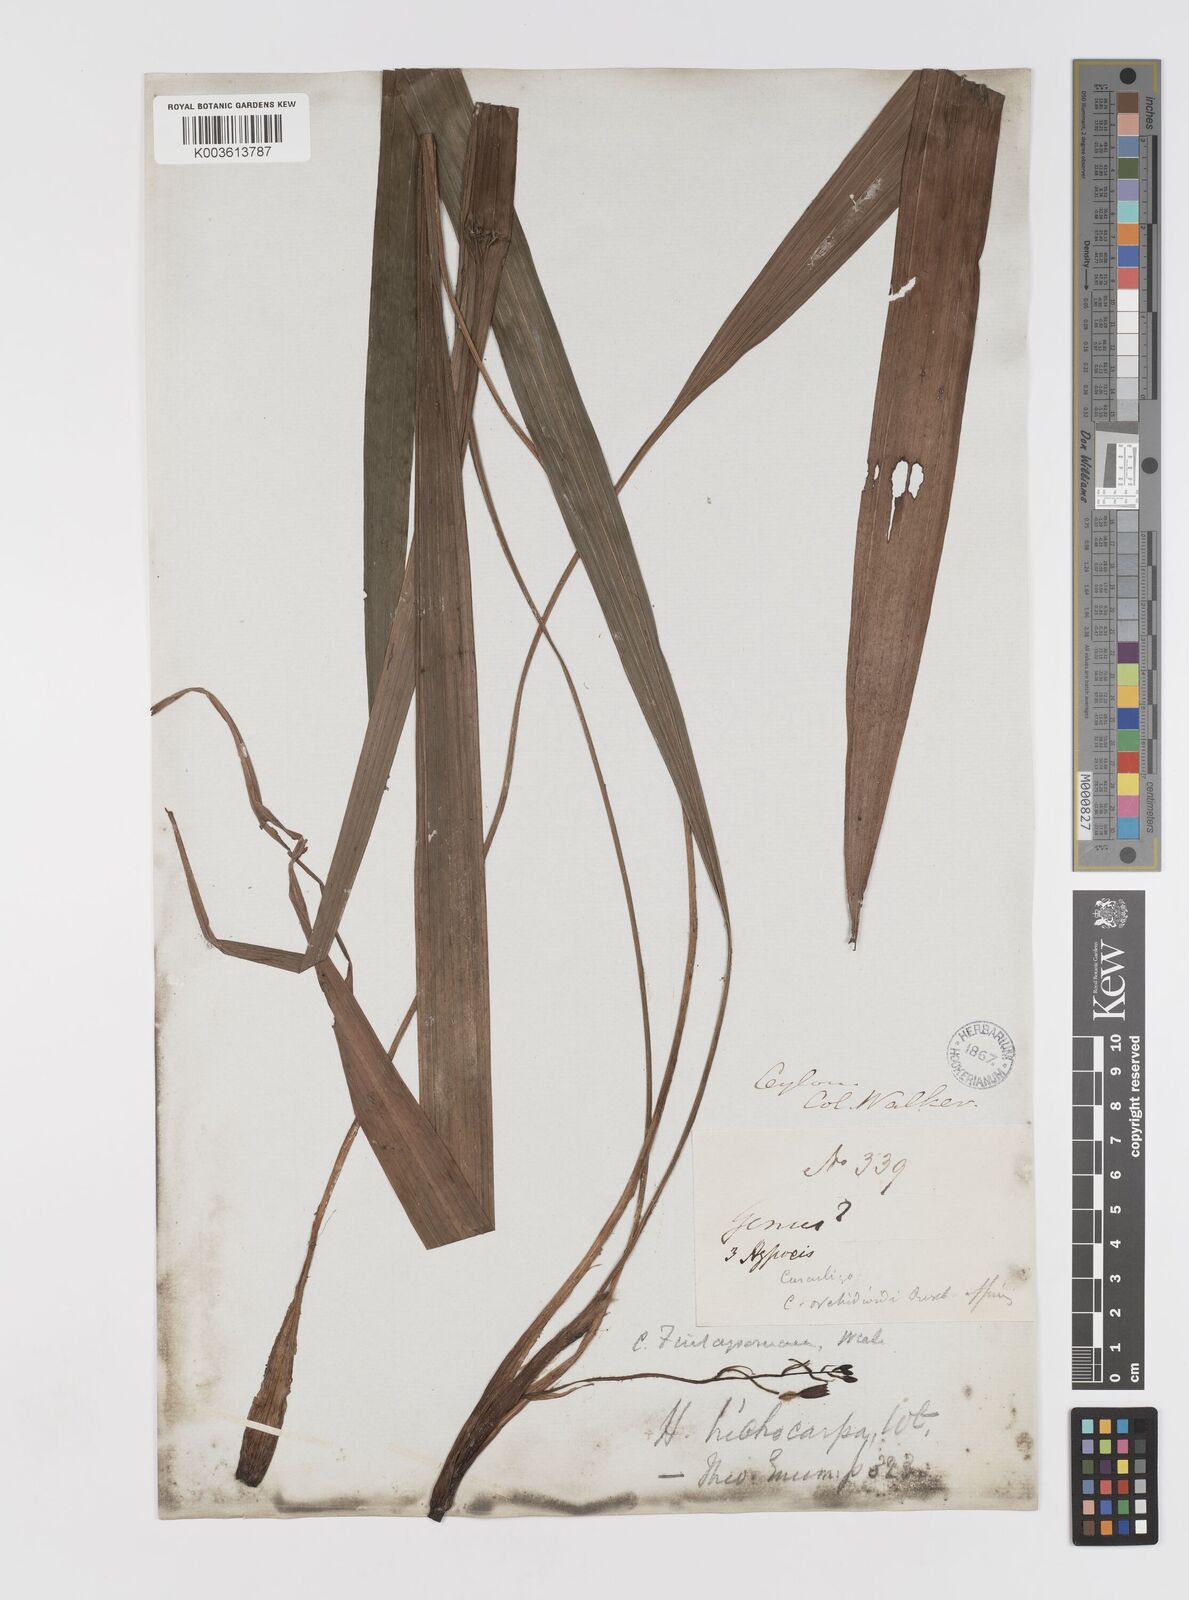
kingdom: Plantae
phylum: Tracheophyta
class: Liliopsida
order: Asparagales
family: Hypoxidaceae
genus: Curculigo
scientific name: Curculigo trichocarpa
